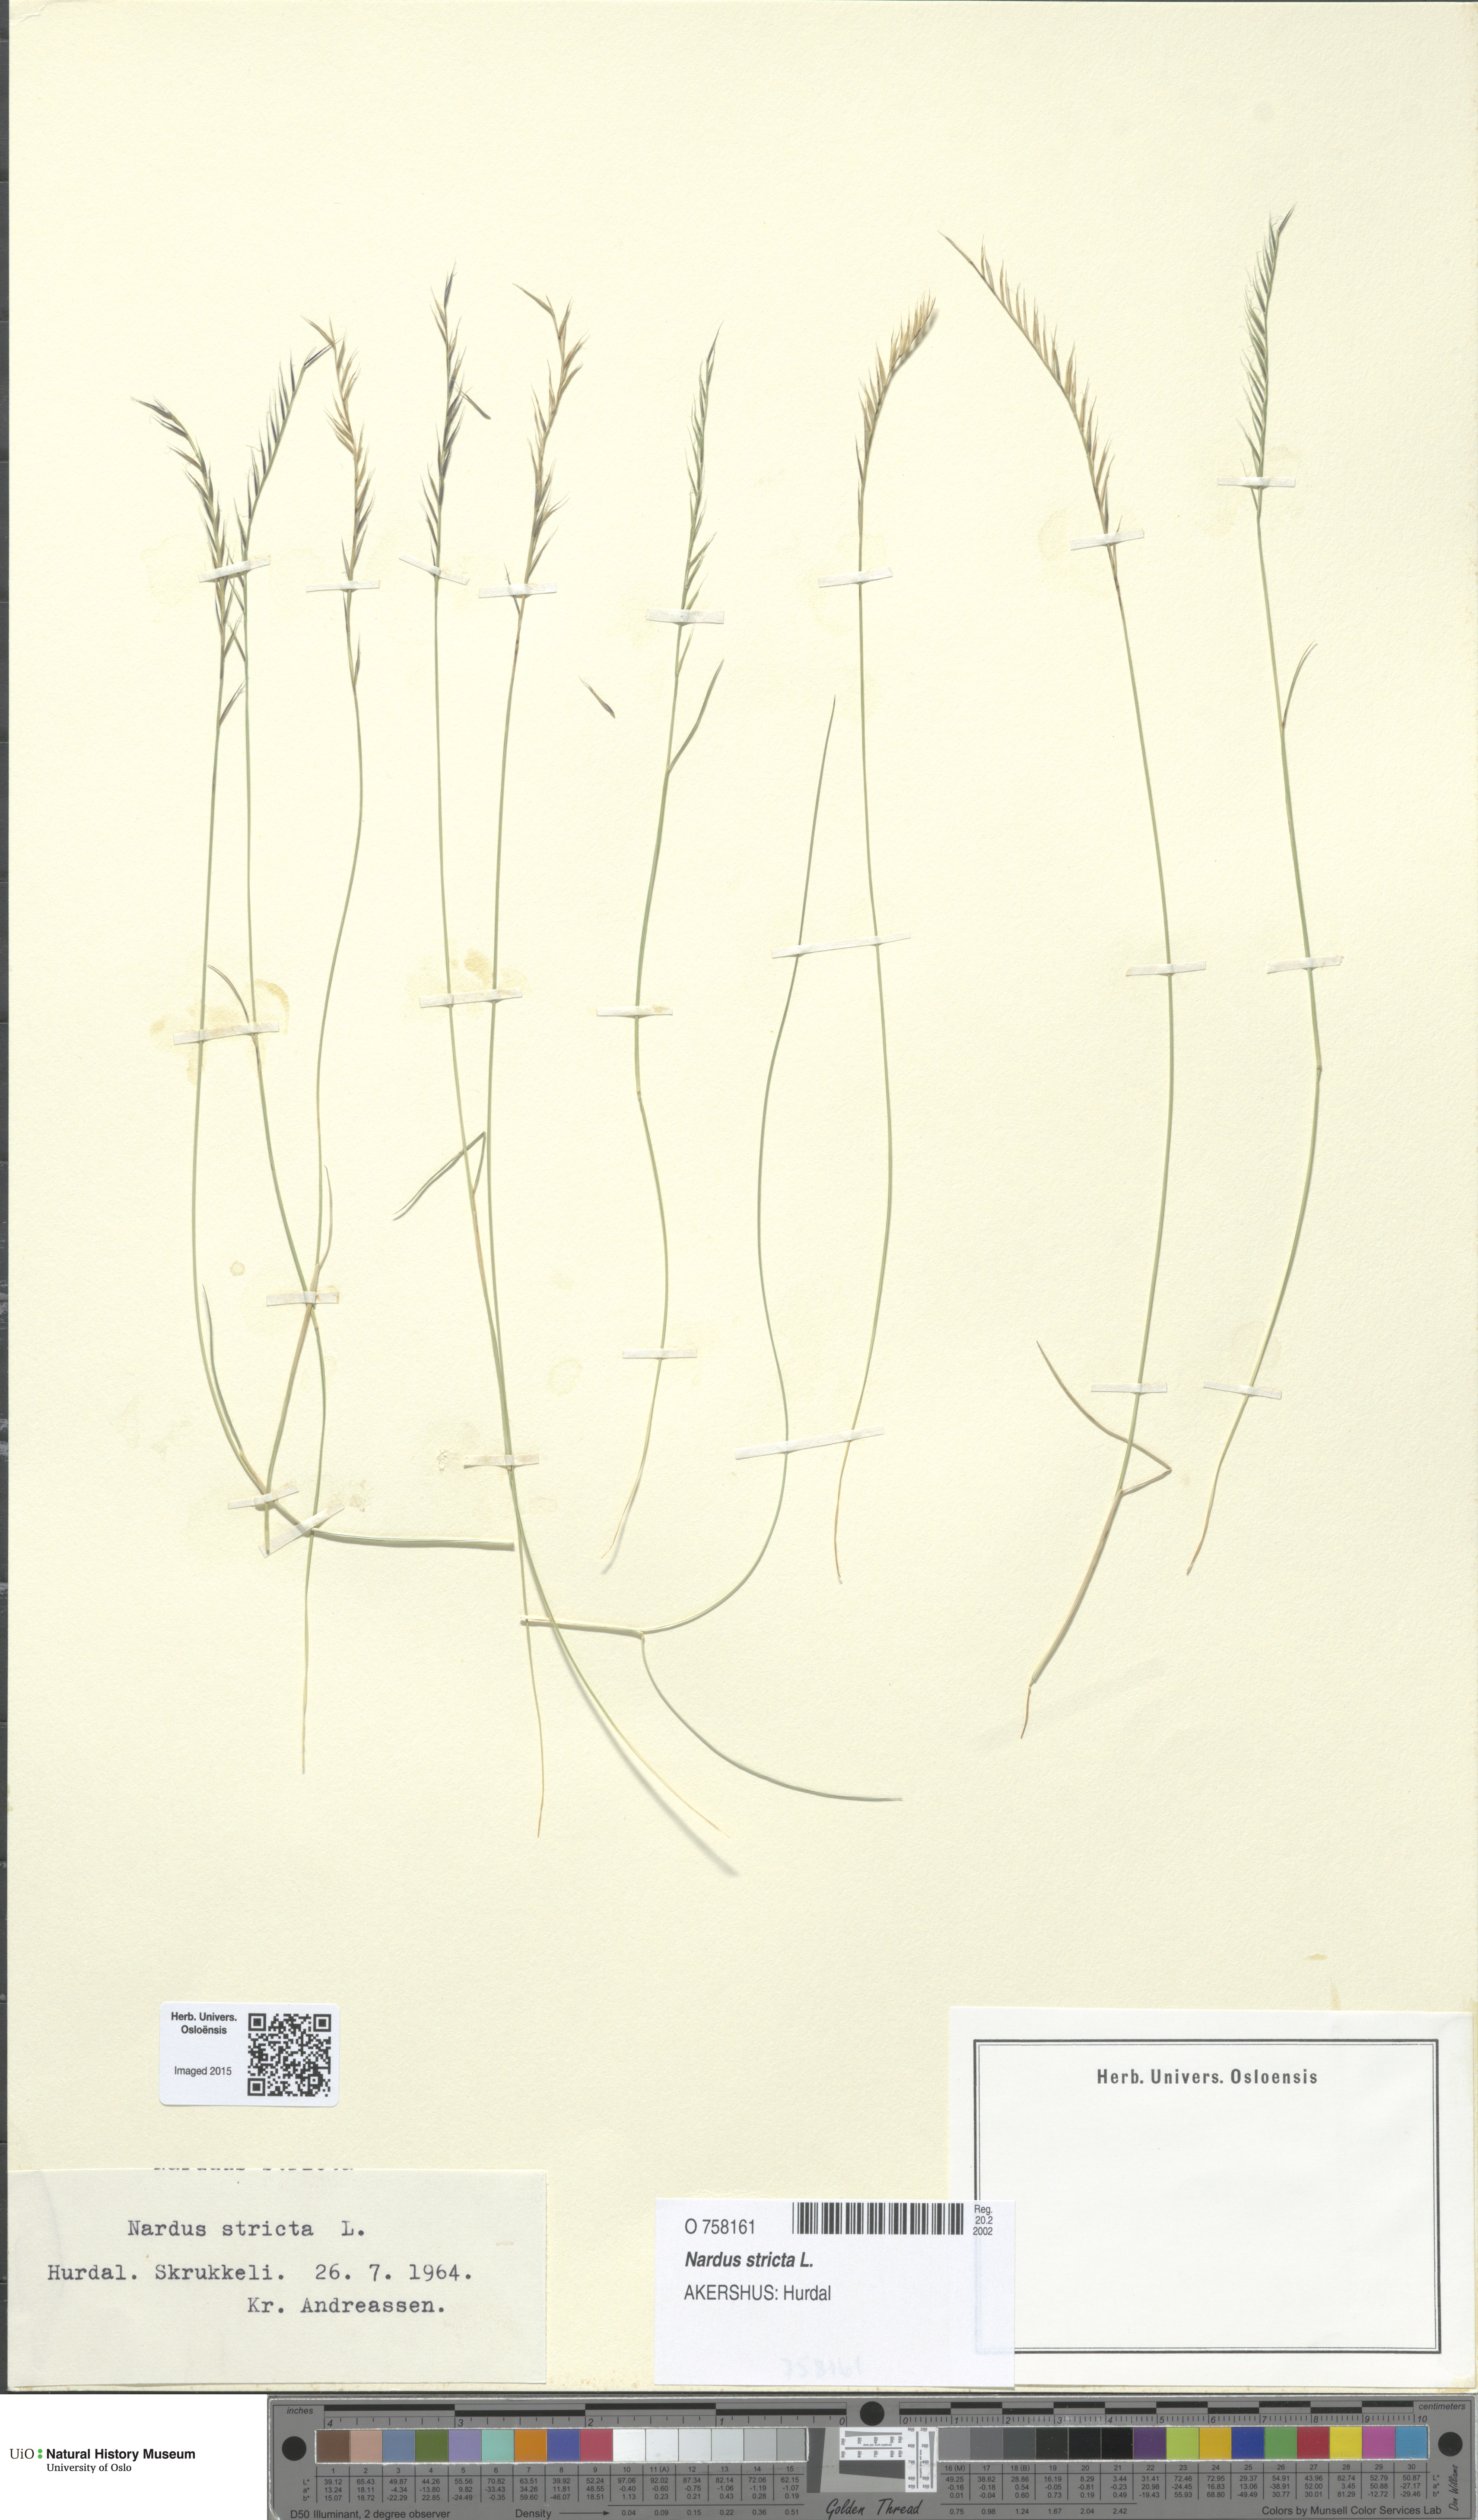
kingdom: Plantae
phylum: Tracheophyta
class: Liliopsida
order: Poales
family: Poaceae
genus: Nardus
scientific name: Nardus stricta
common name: Mat-grass
